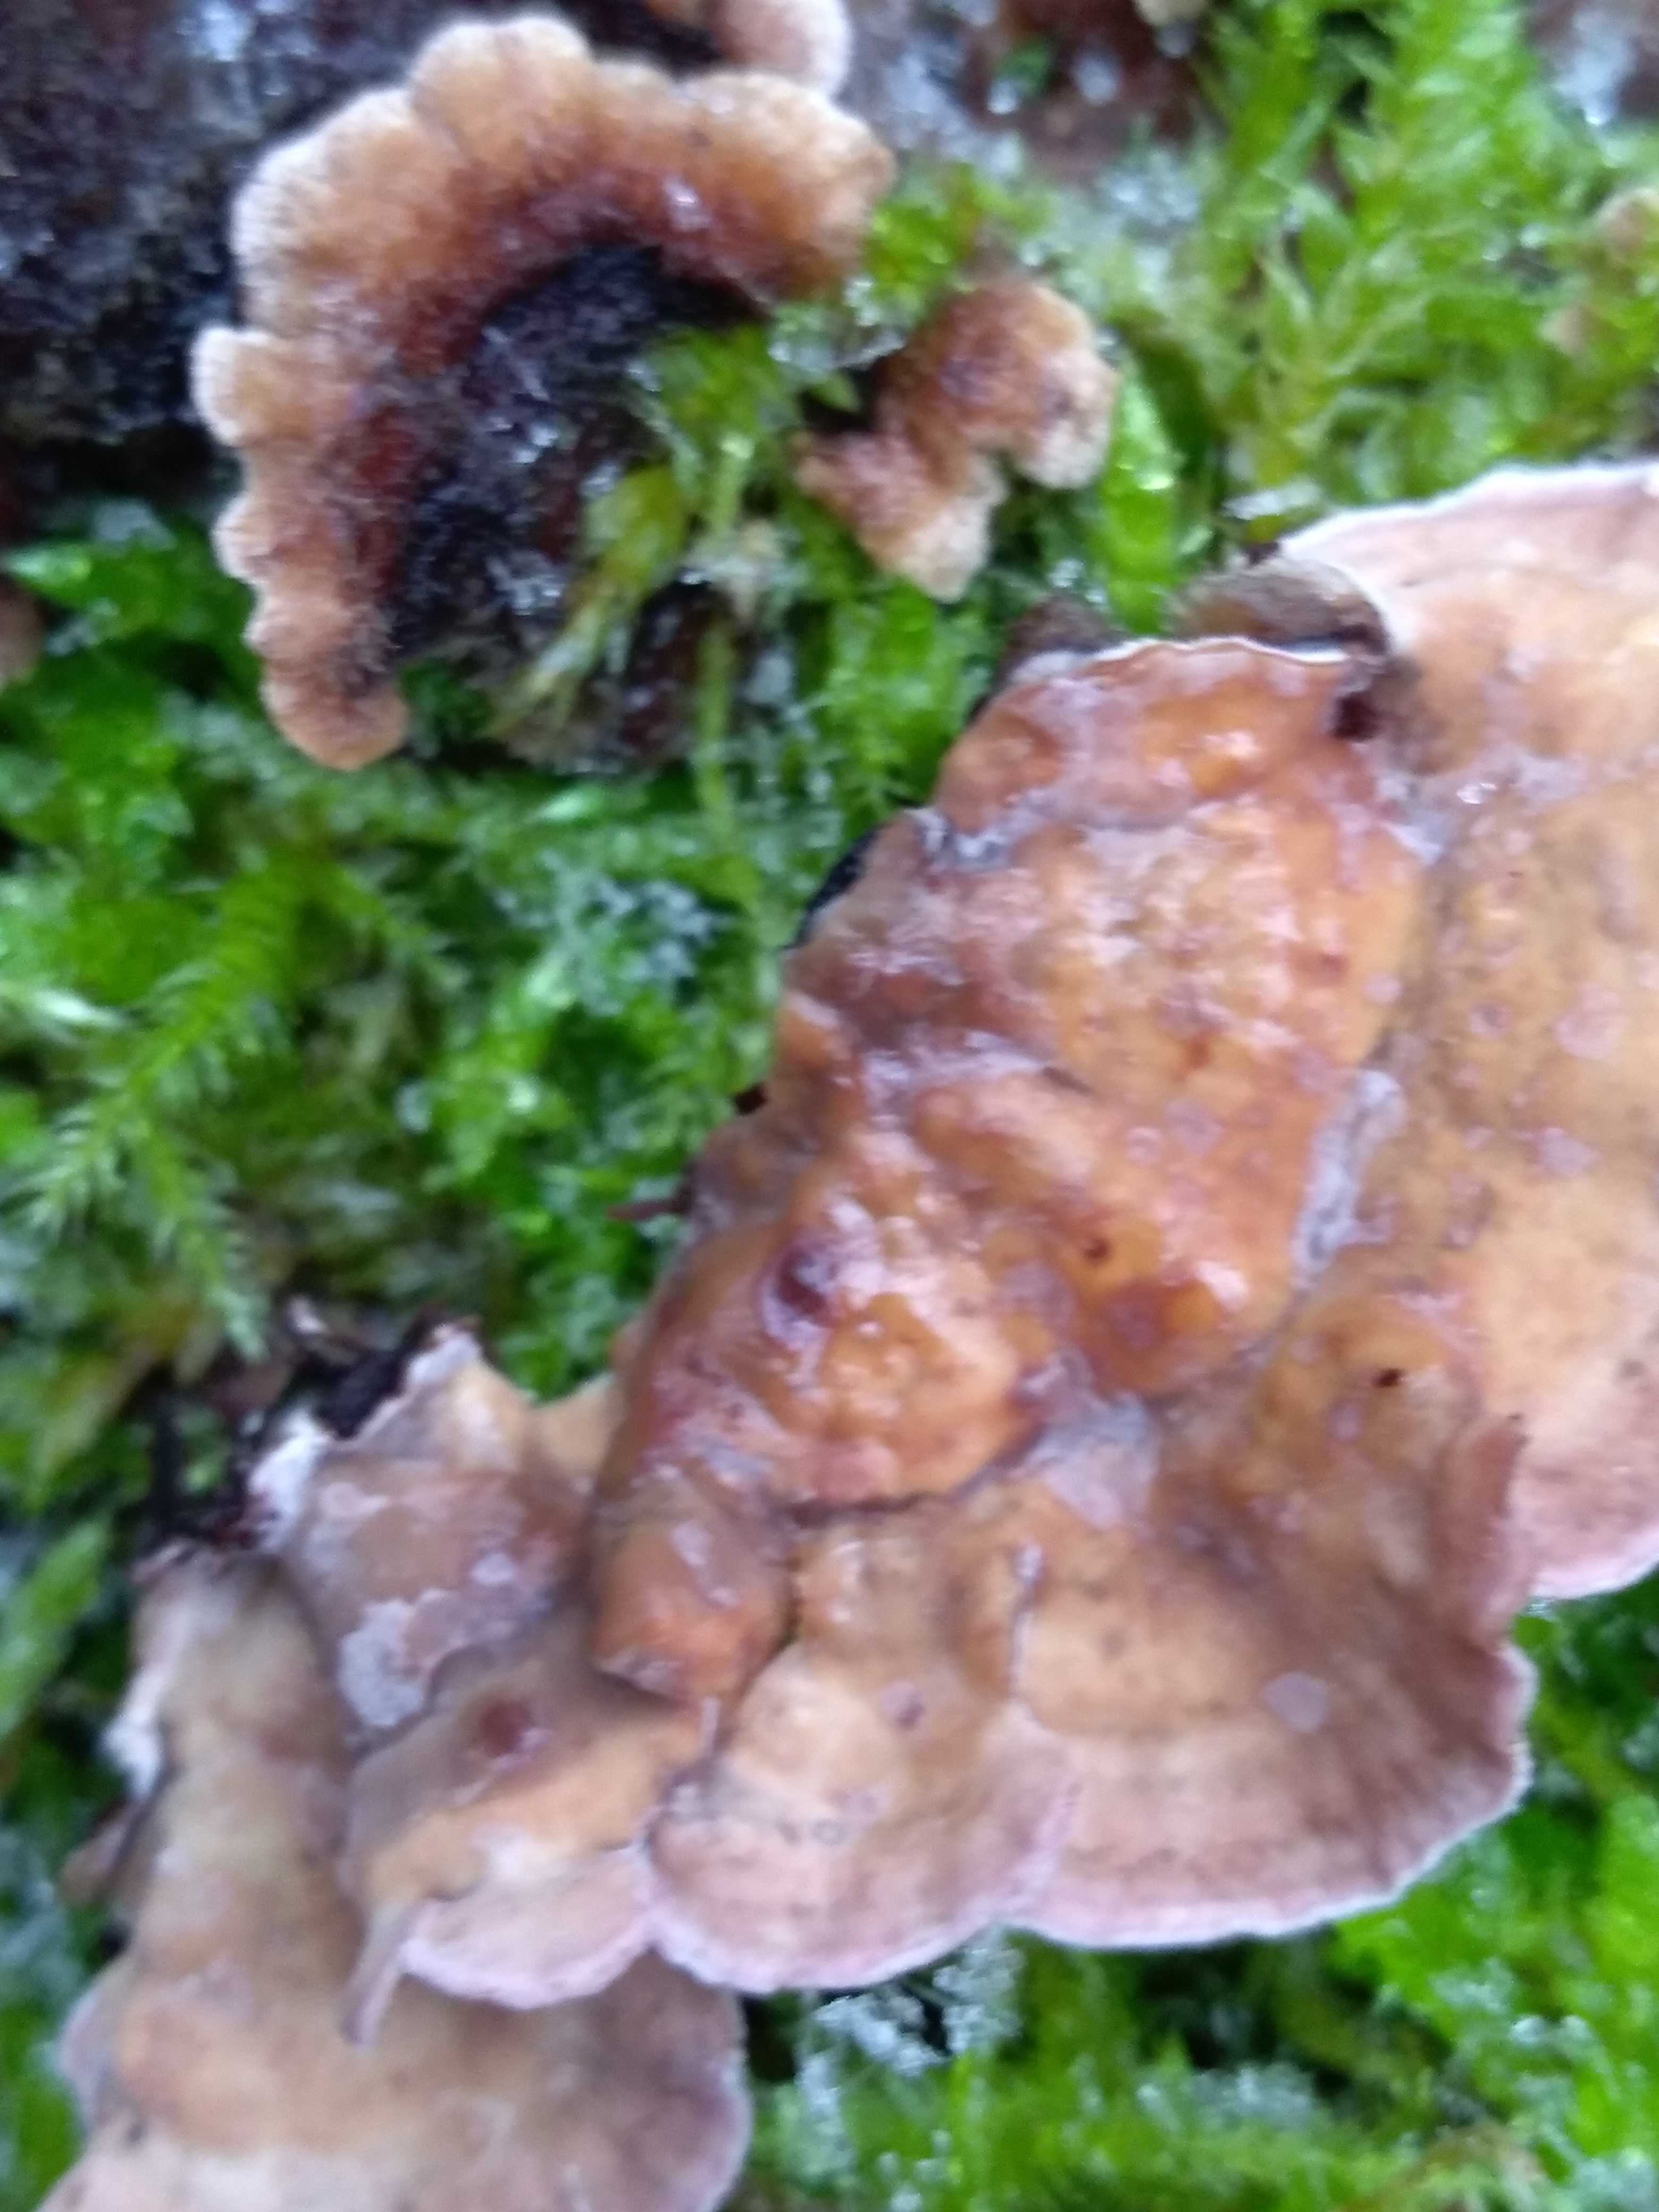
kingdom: Fungi
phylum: Basidiomycota
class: Agaricomycetes
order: Polyporales
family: Polyporaceae
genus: Trametes
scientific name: Trametes versicolor
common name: broget læderporesvamp
